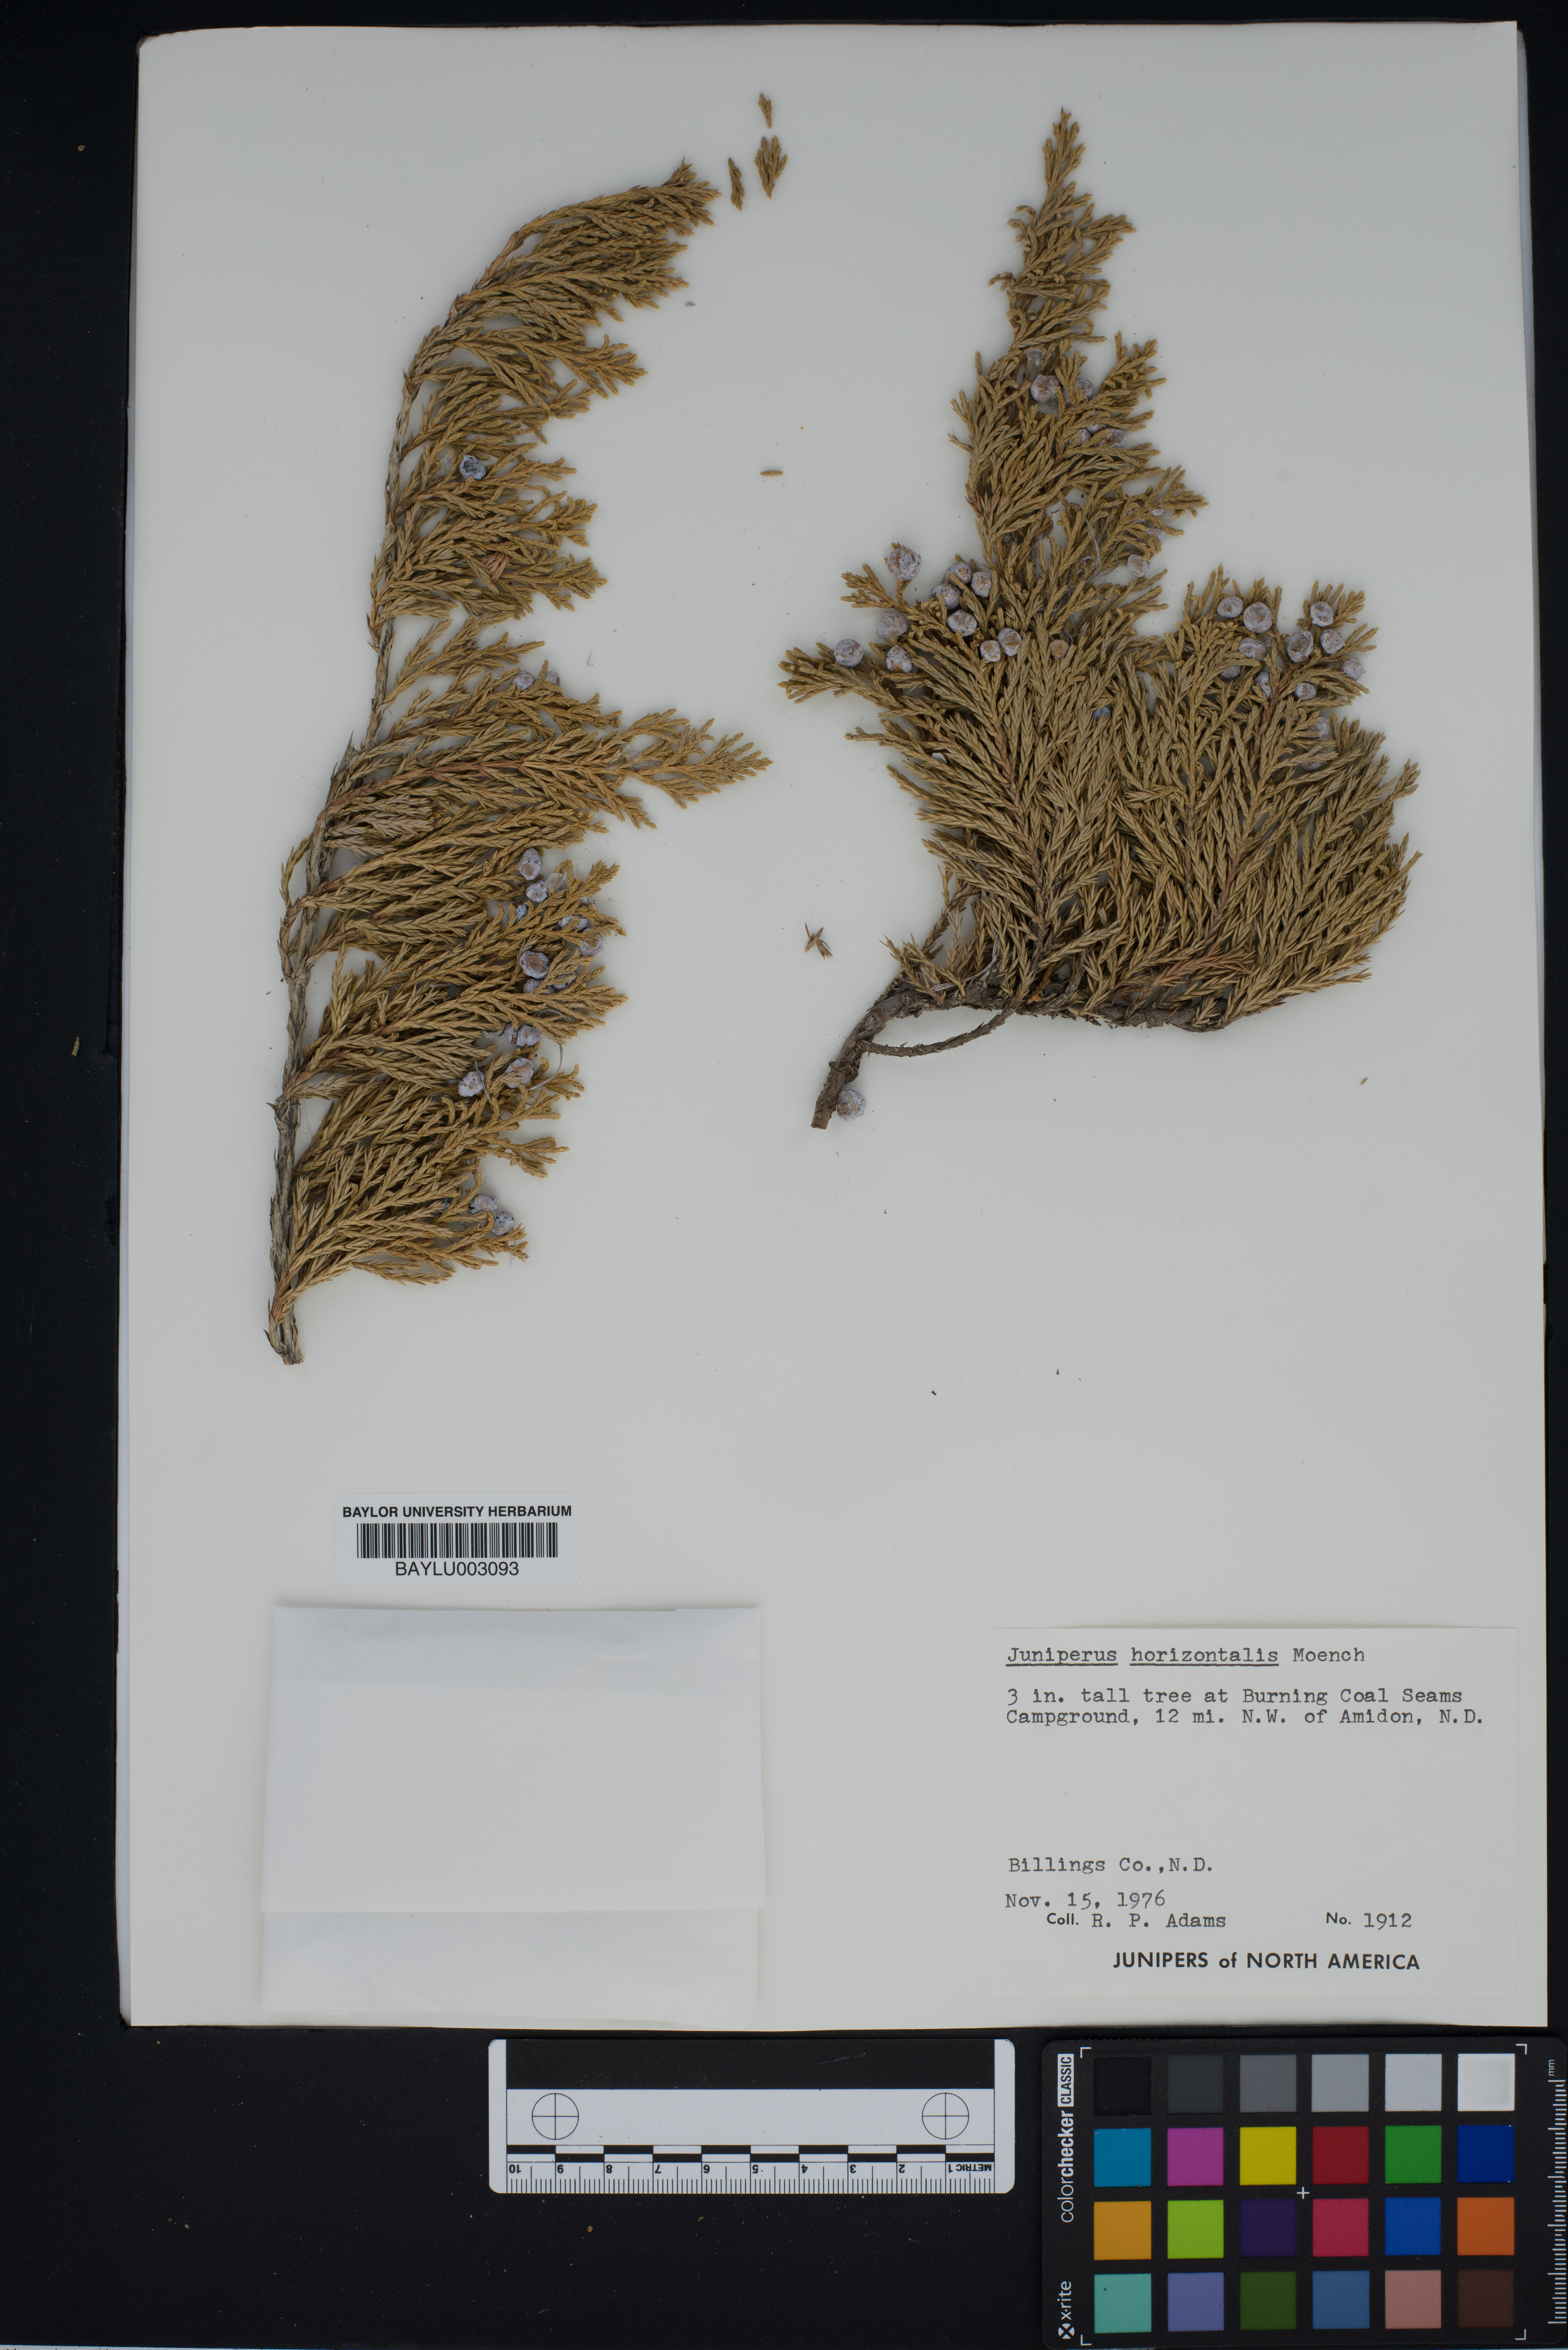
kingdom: Plantae
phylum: Tracheophyta
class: Pinopsida
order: Pinales
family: Cupressaceae
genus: Juniperus
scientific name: Juniperus horizontalis
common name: Creeping juniper
